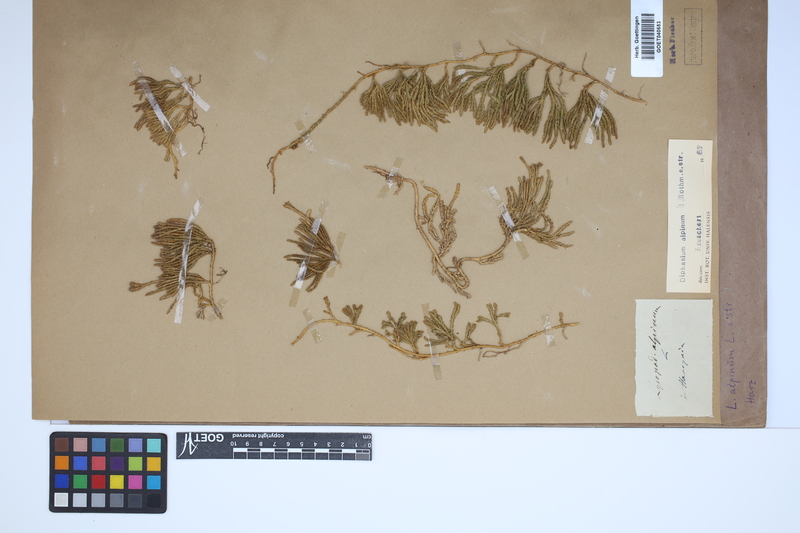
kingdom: Plantae
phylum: Tracheophyta
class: Lycopodiopsida
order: Lycopodiales
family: Lycopodiaceae
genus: Diphasiastrum
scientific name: Diphasiastrum alpinum
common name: Alpine clubmoss
